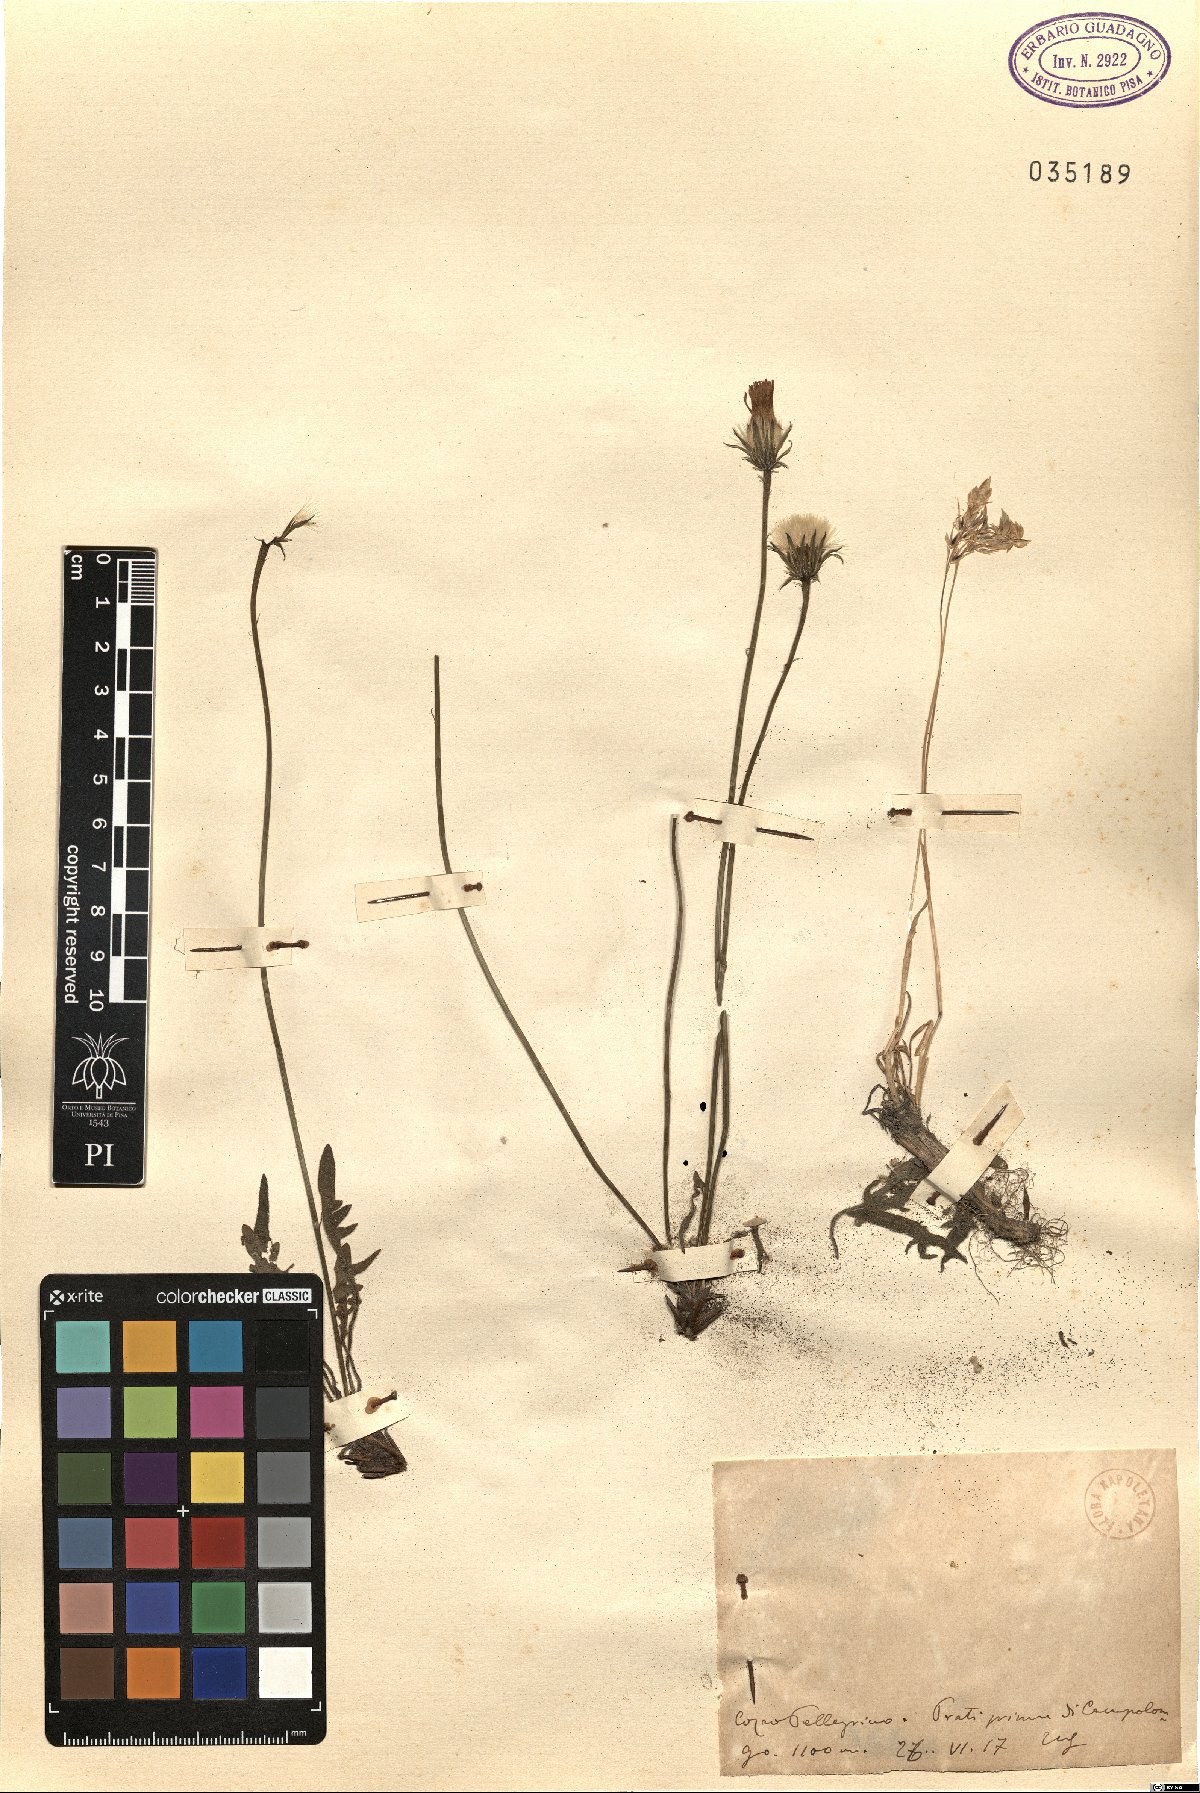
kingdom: Plantae
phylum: Tracheophyta
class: Magnoliopsida
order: Asterales
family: Asteraceae
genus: Thrincia
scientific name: Thrincia
